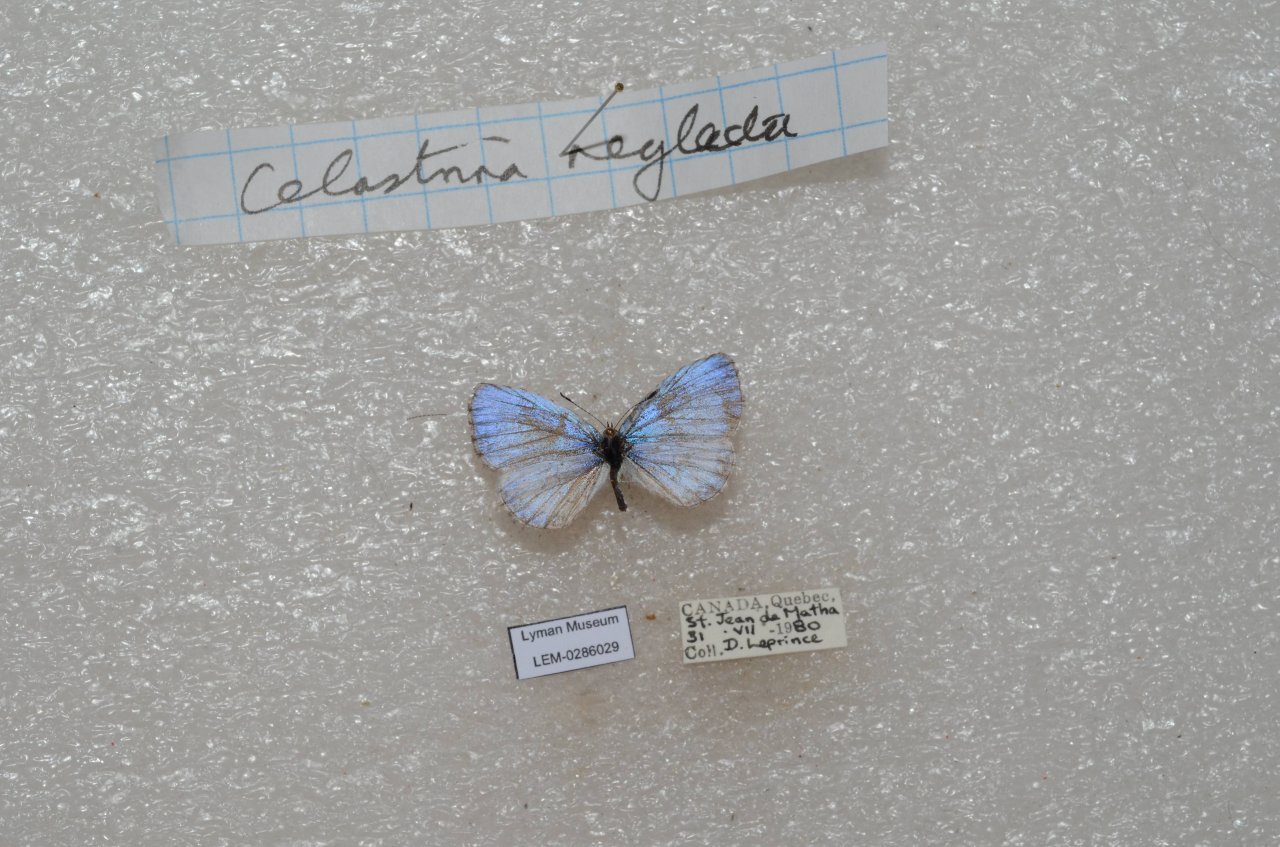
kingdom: Animalia
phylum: Arthropoda
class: Insecta
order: Lepidoptera
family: Lycaenidae
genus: Celastrina
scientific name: Celastrina lucia
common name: Northern Spring Azure
